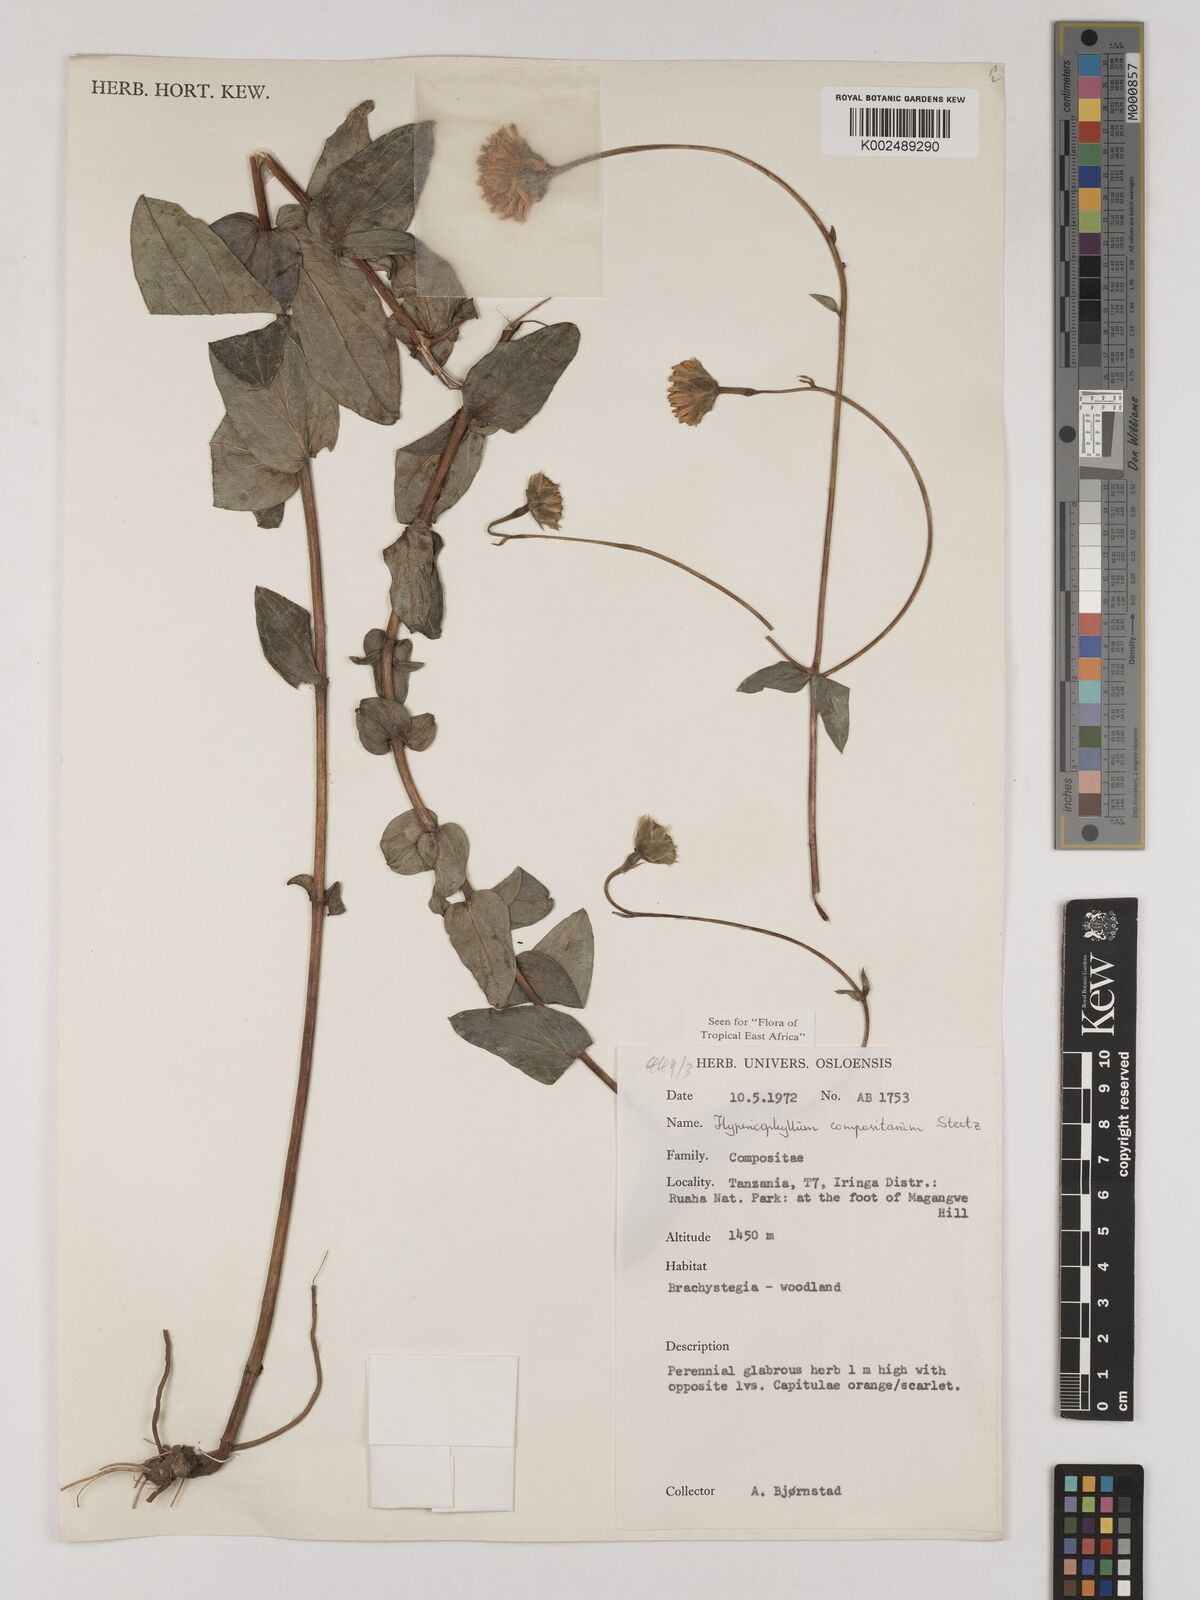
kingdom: Plantae
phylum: Tracheophyta
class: Magnoliopsida
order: Asterales
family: Asteraceae
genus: Hypericophyllum
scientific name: Hypericophyllum compositarum
